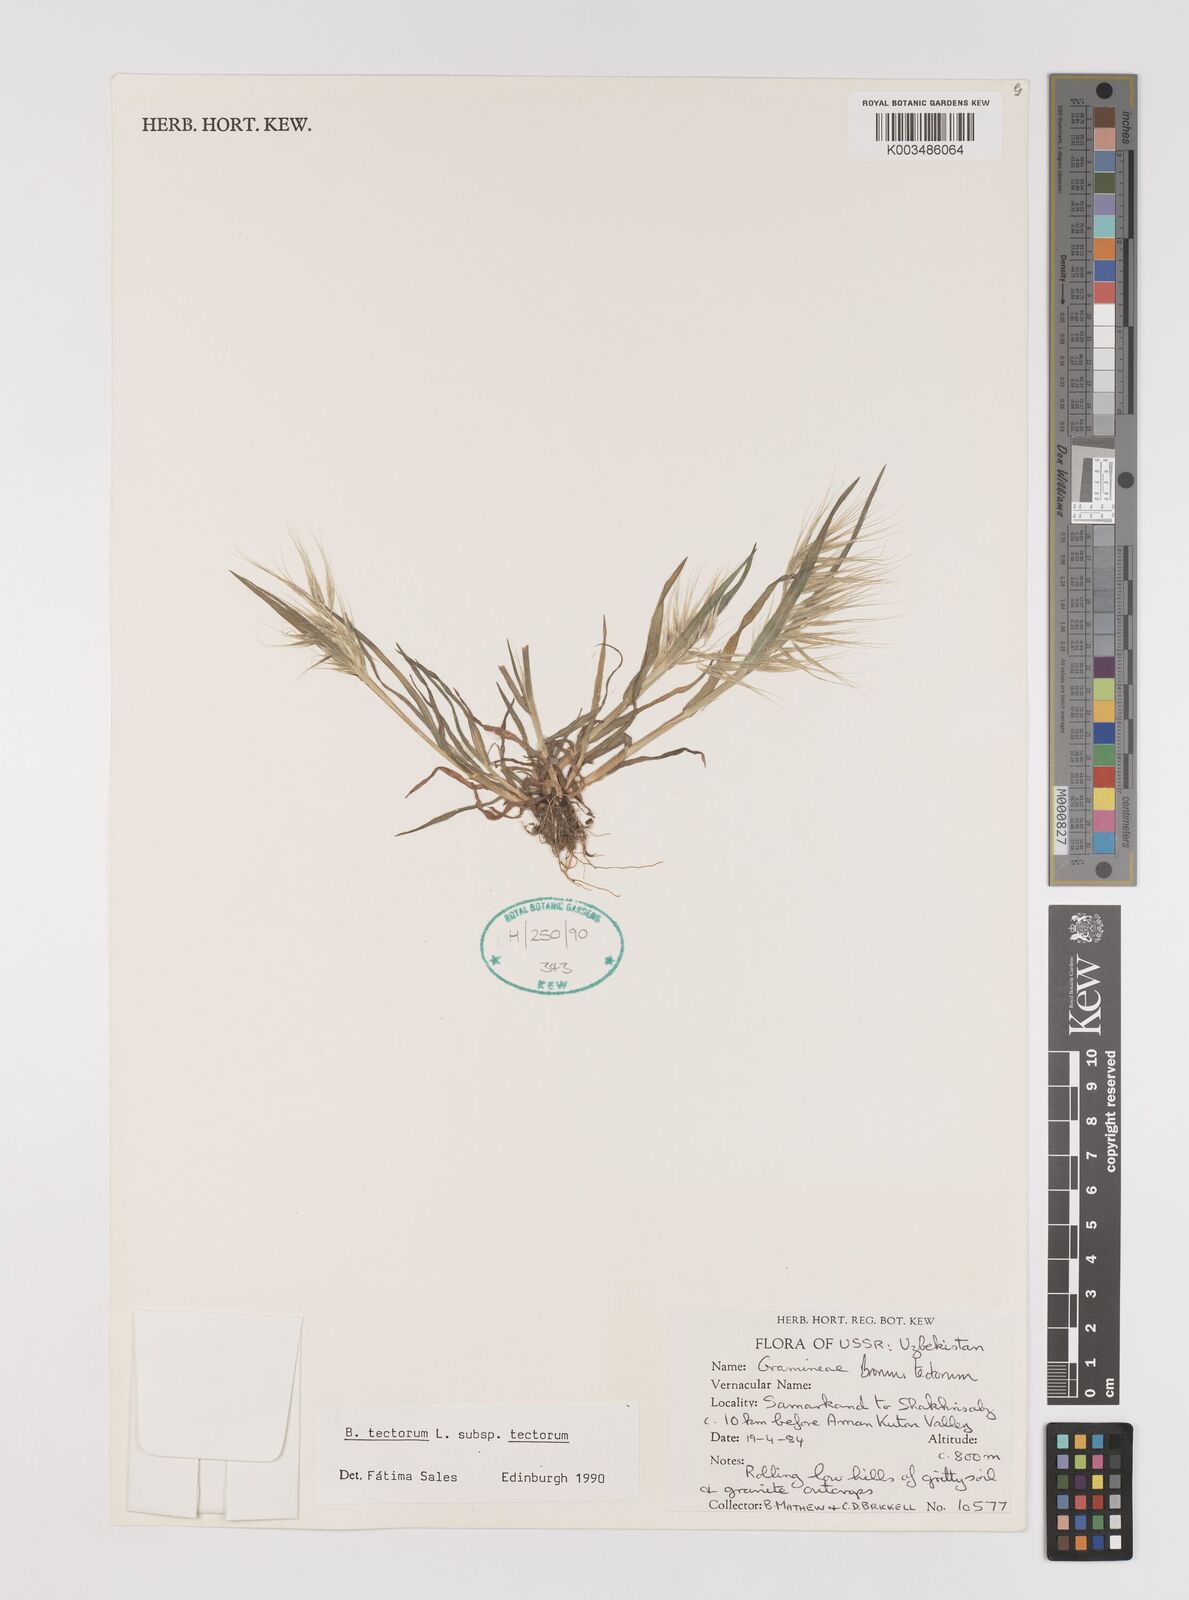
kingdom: Plantae
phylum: Tracheophyta
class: Liliopsida
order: Poales
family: Poaceae
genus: Bromus
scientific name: Bromus tectorum
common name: Cheatgrass
